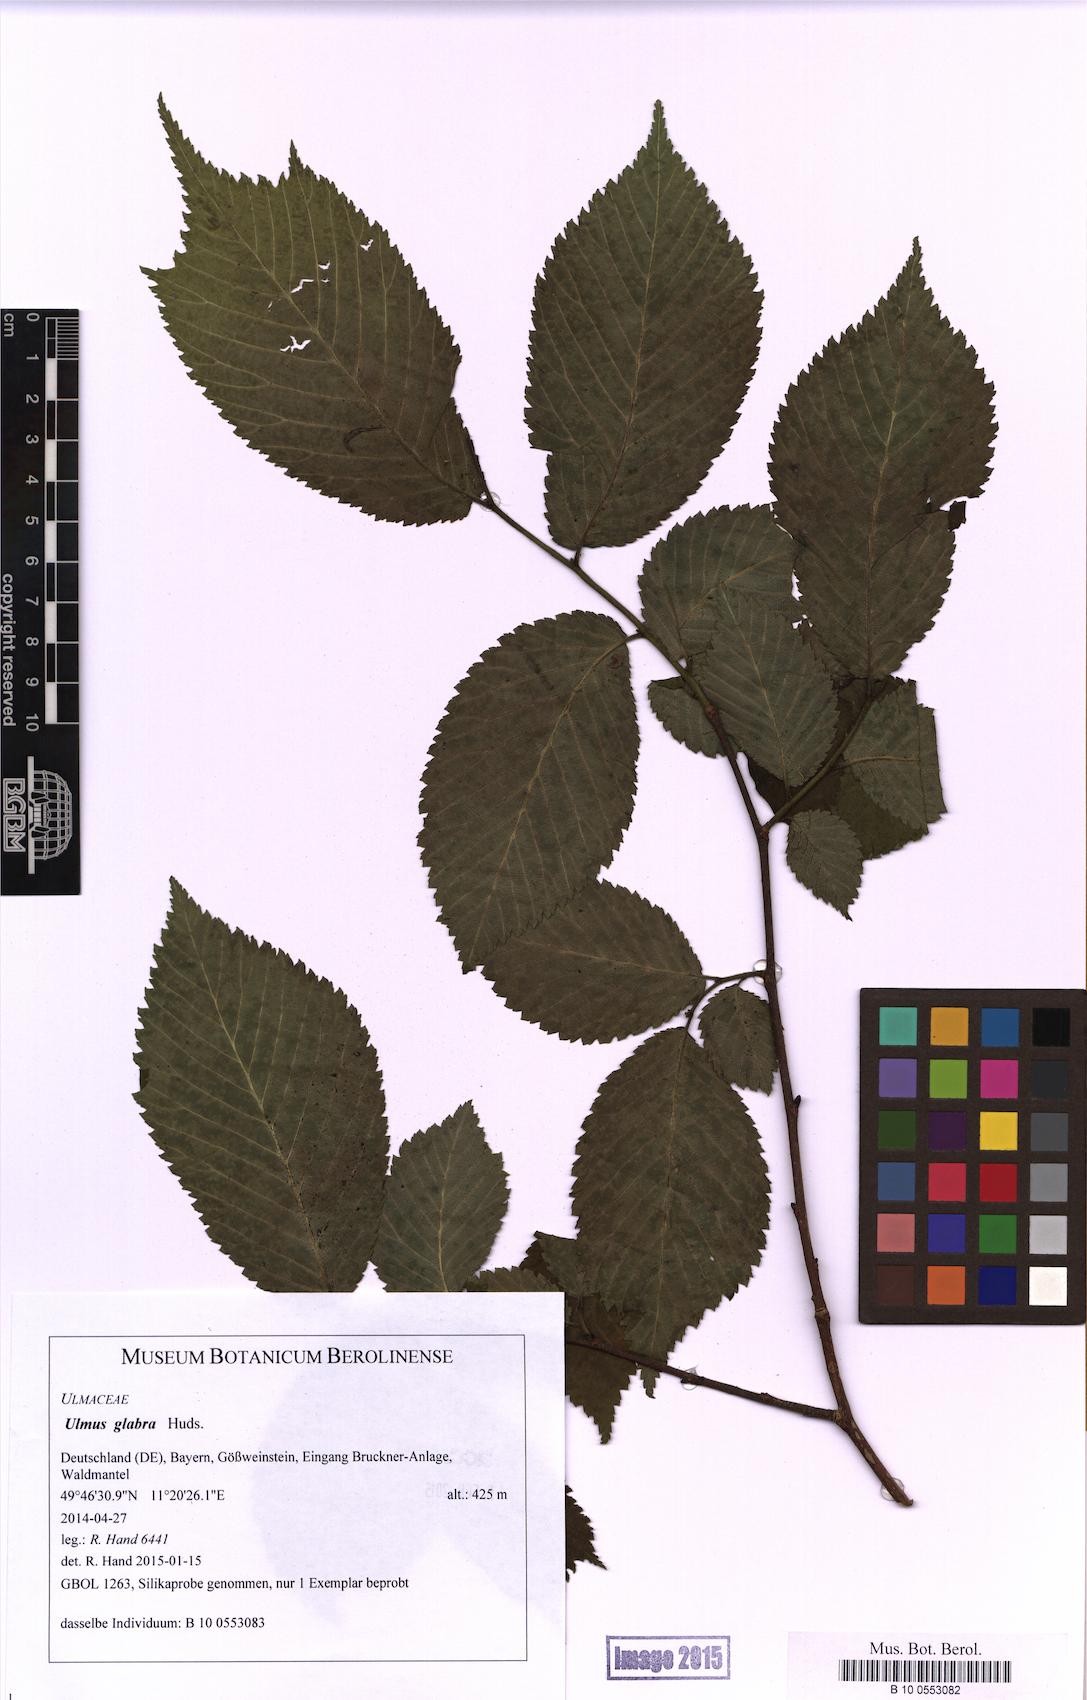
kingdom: Plantae
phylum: Tracheophyta
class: Magnoliopsida
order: Rosales
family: Ulmaceae
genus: Ulmus
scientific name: Ulmus glabra
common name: Wych elm
